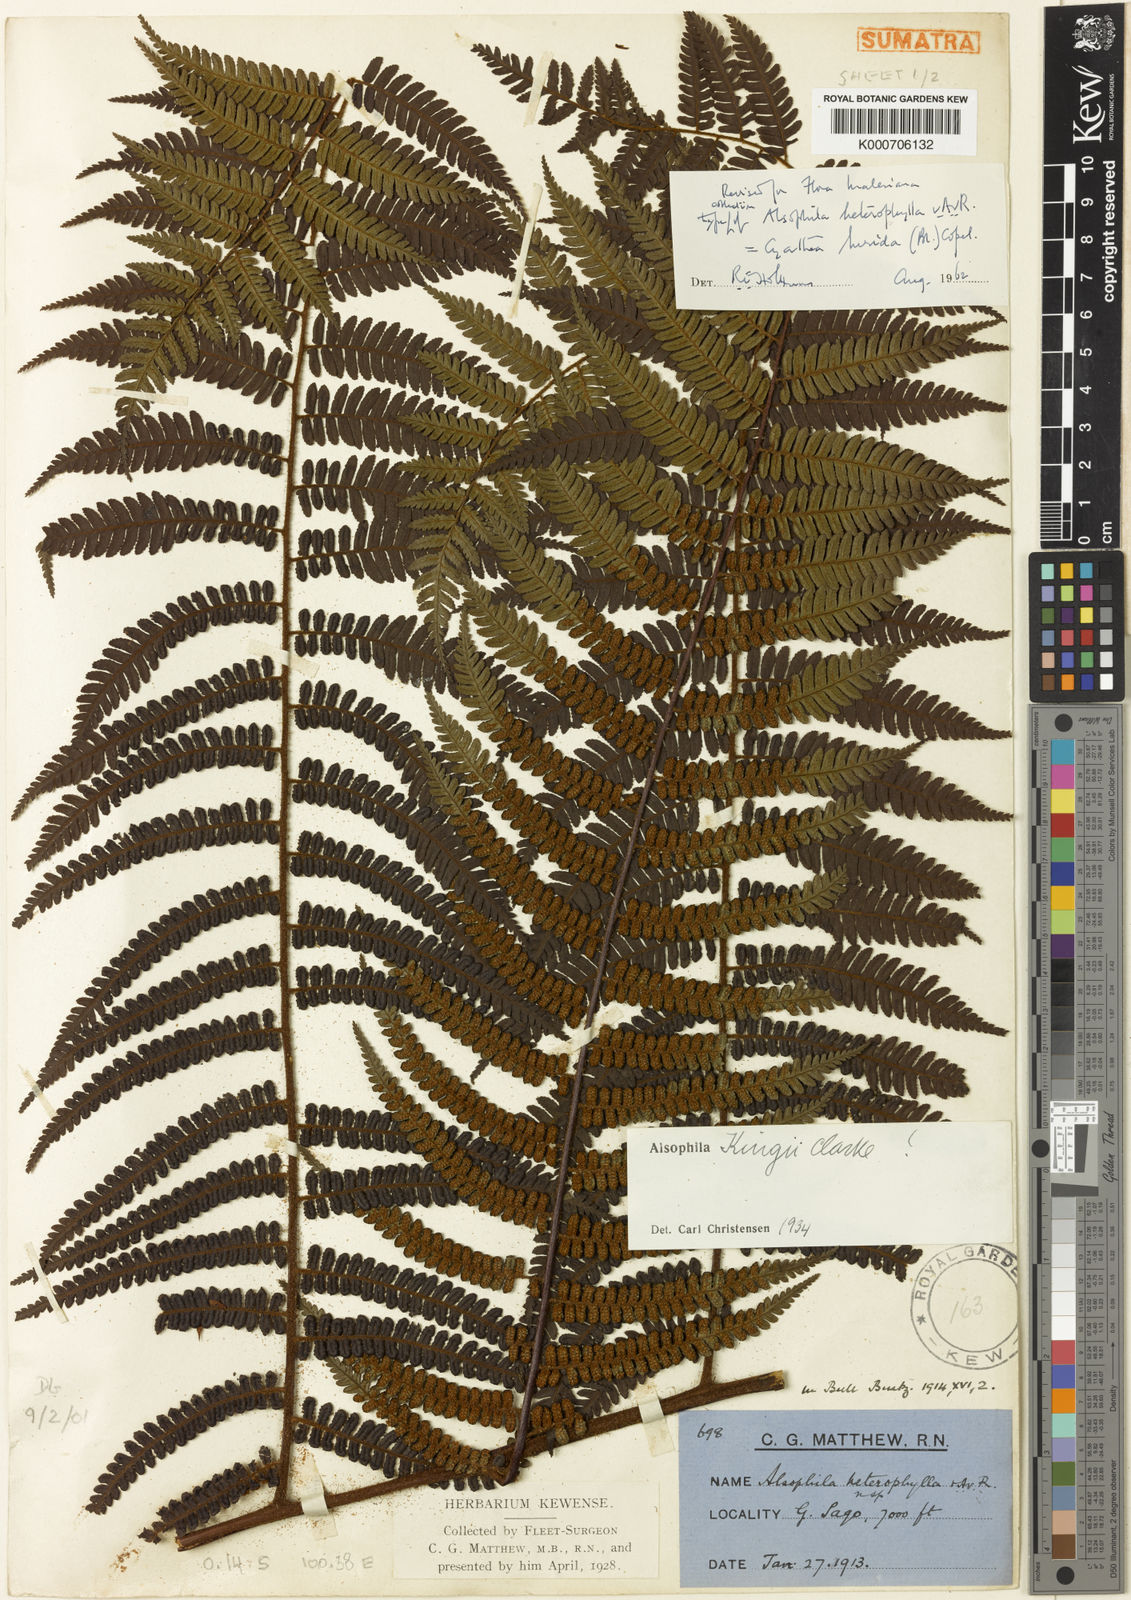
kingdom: Plantae
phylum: Tracheophyta
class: Polypodiopsida
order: Cyatheales
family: Cyatheaceae
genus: Gymnosphaera
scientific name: Gymnosphaera lurida
